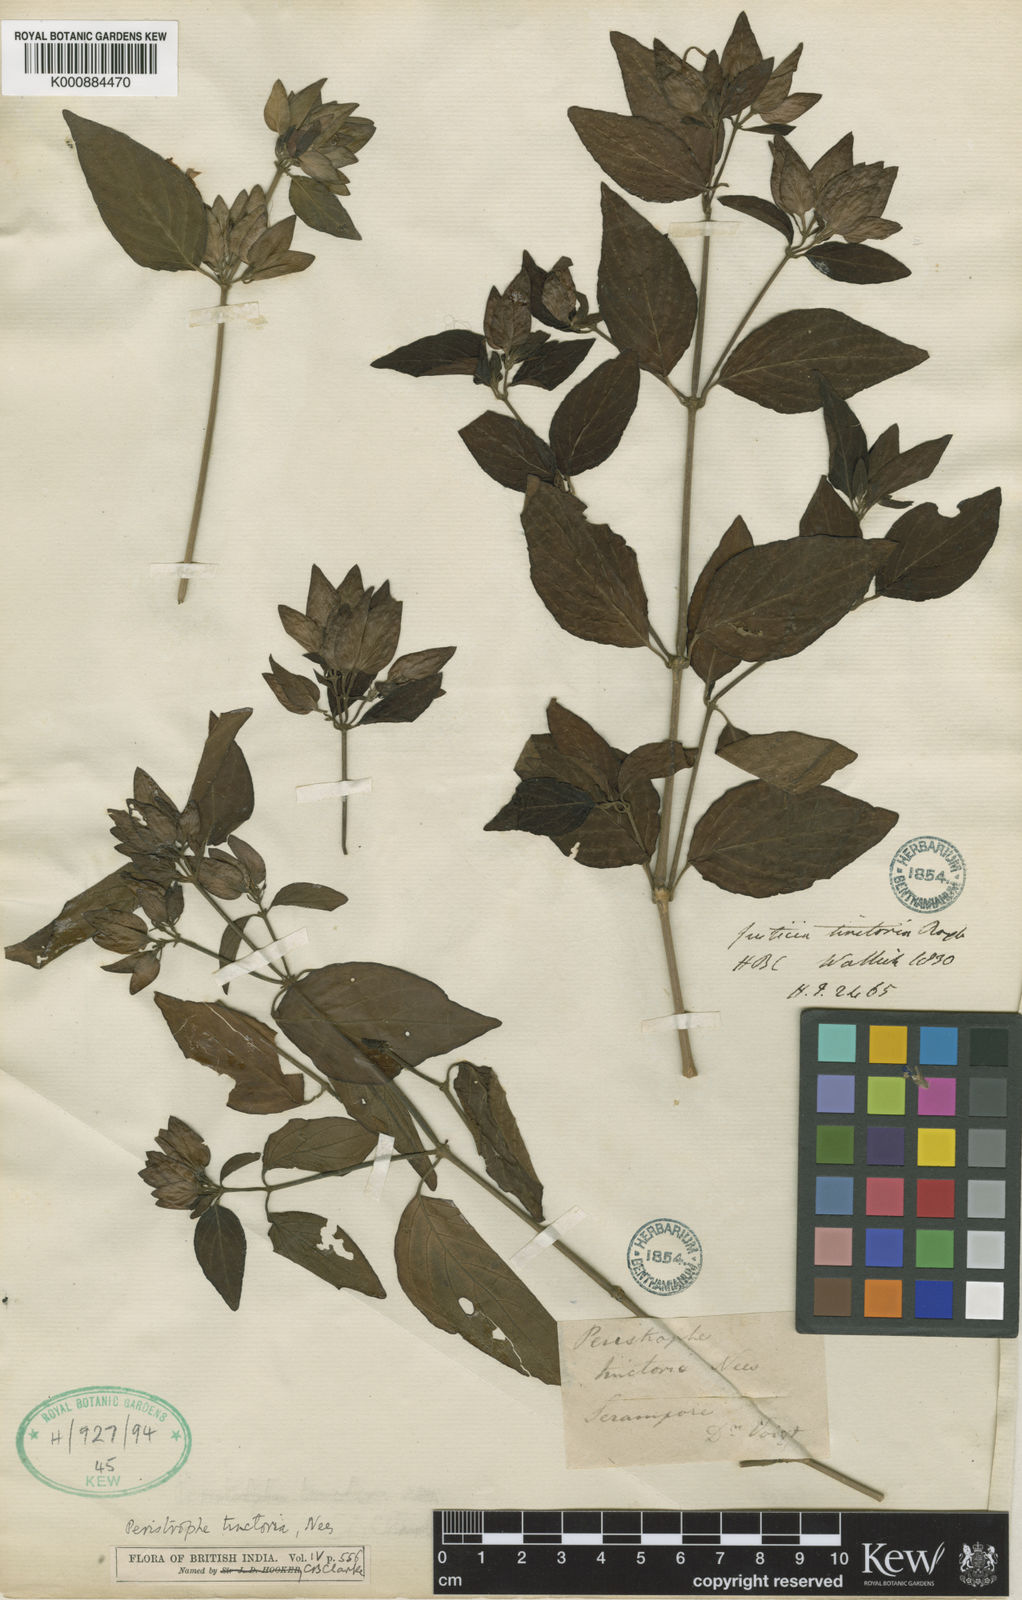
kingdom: Plantae
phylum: Tracheophyta
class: Magnoliopsida
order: Lamiales
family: Acanthaceae
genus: Dicliptera
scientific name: Dicliptera tinctoria
